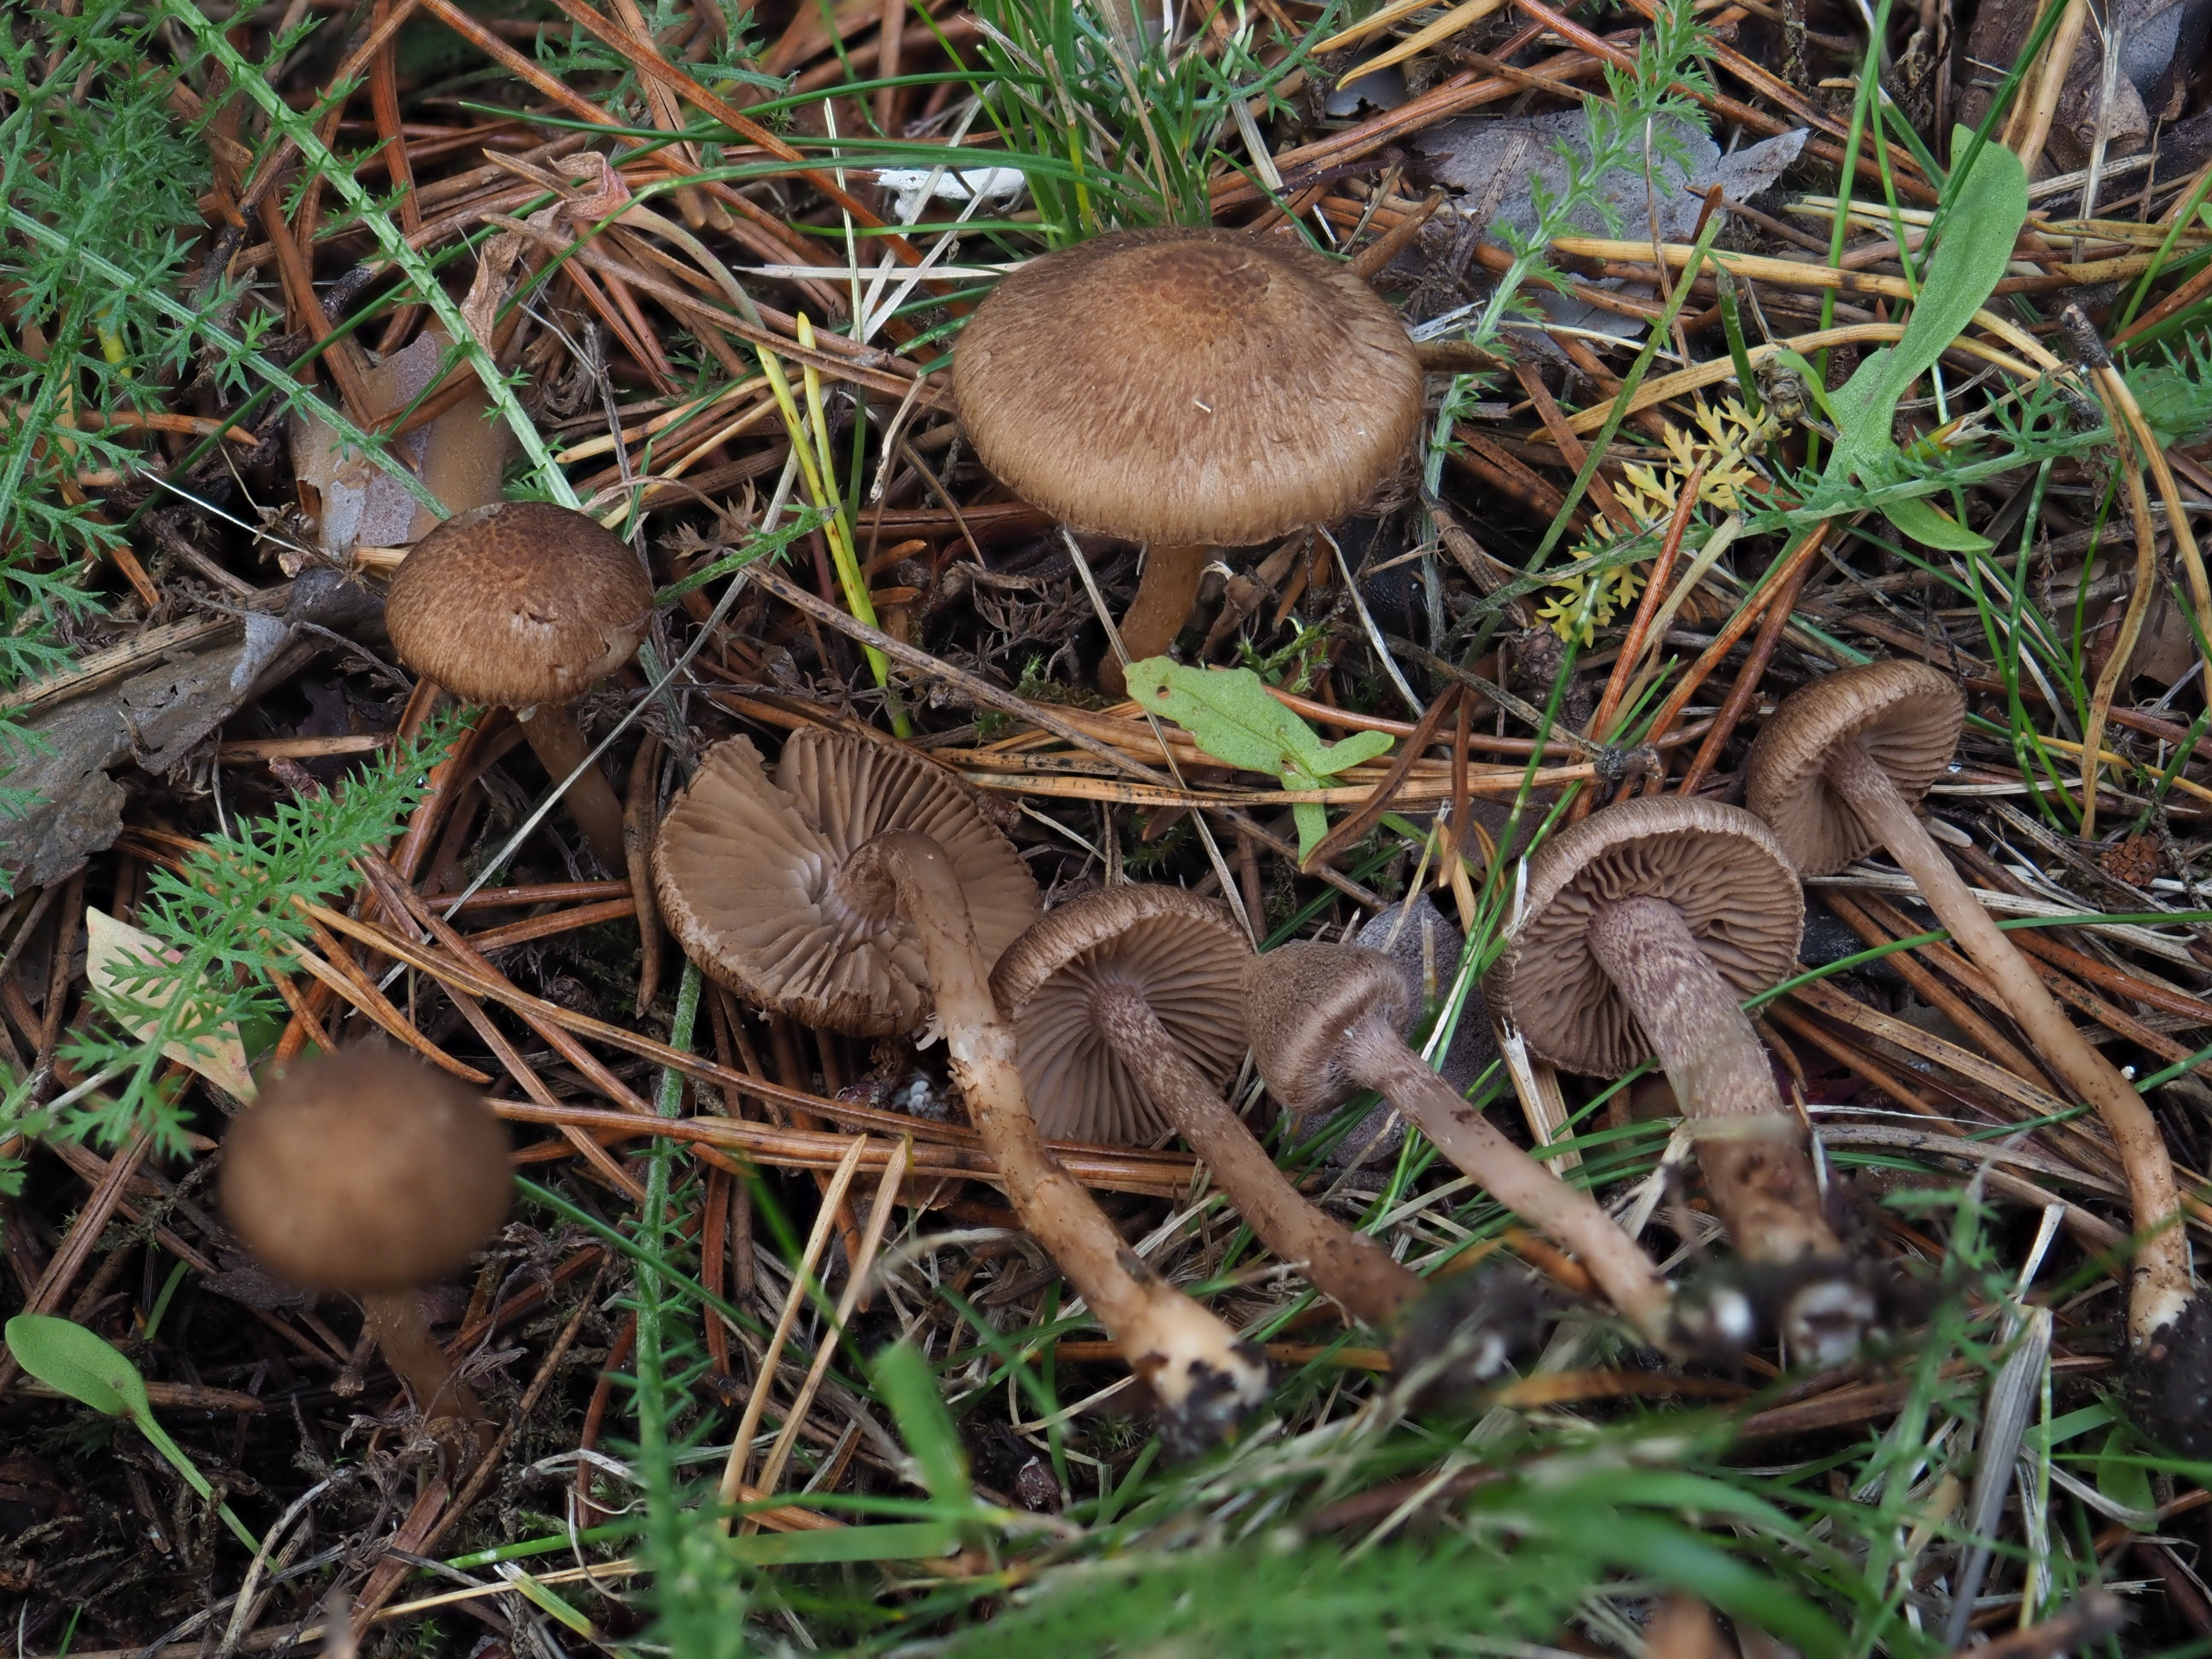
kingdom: Fungi
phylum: Basidiomycota
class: Agaricomycetes
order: Agaricales
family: Inocybaceae
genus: Inocybe
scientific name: Inocybe cincinnata
